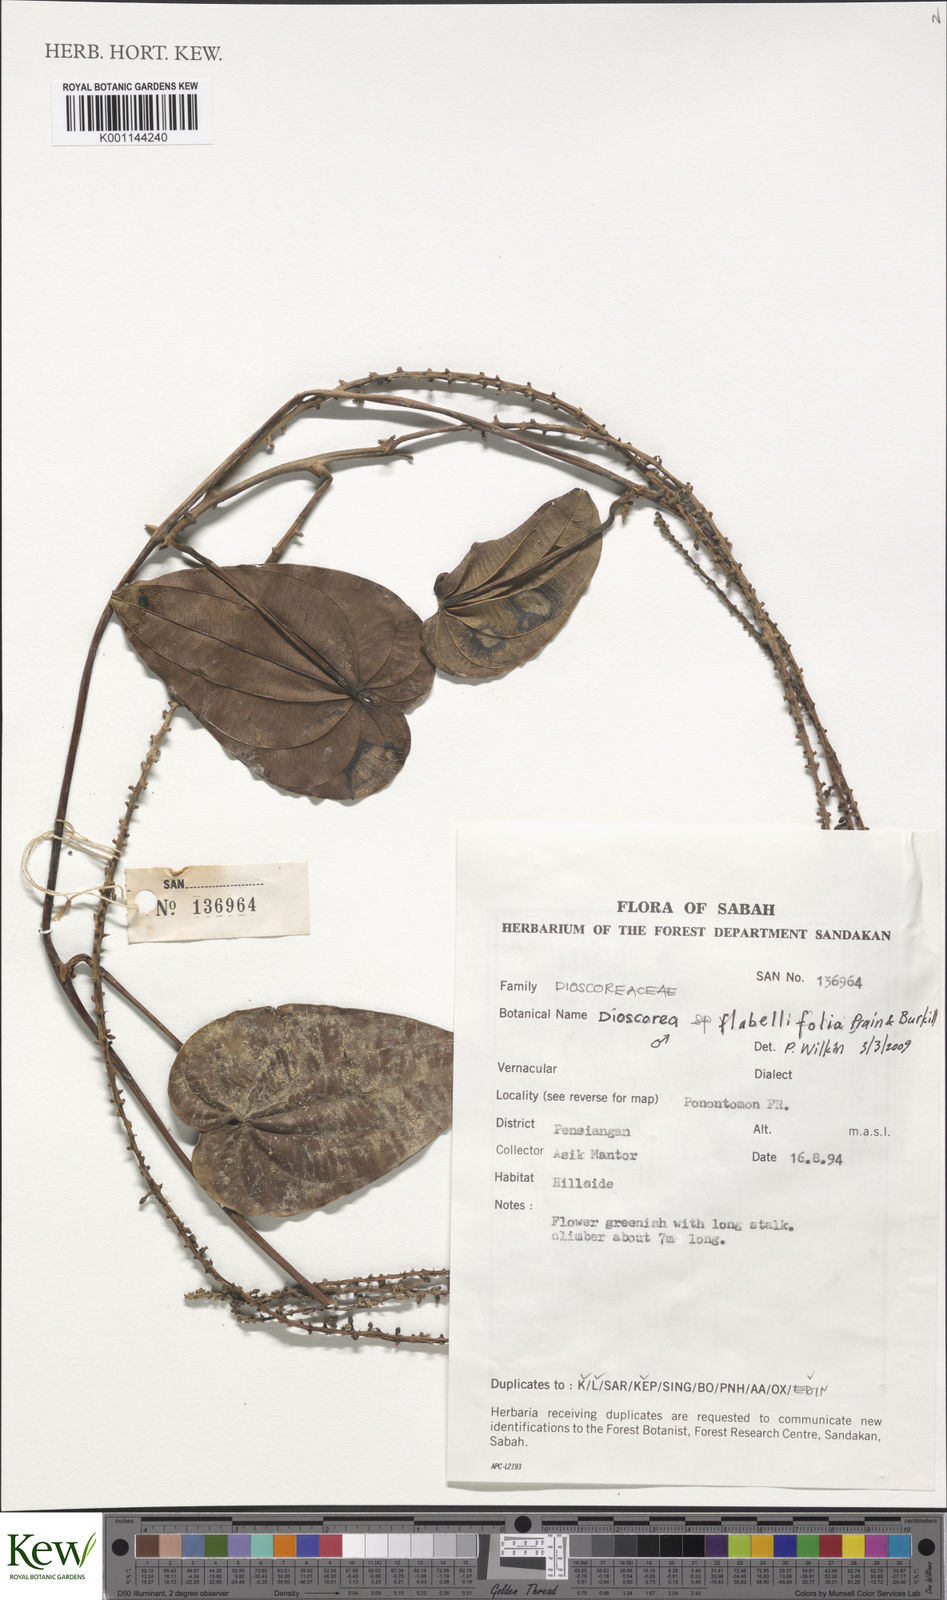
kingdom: Plantae
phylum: Tracheophyta
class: Liliopsida
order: Dioscoreales
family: Dioscoreaceae
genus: Dioscorea
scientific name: Dioscorea flabellifolia
